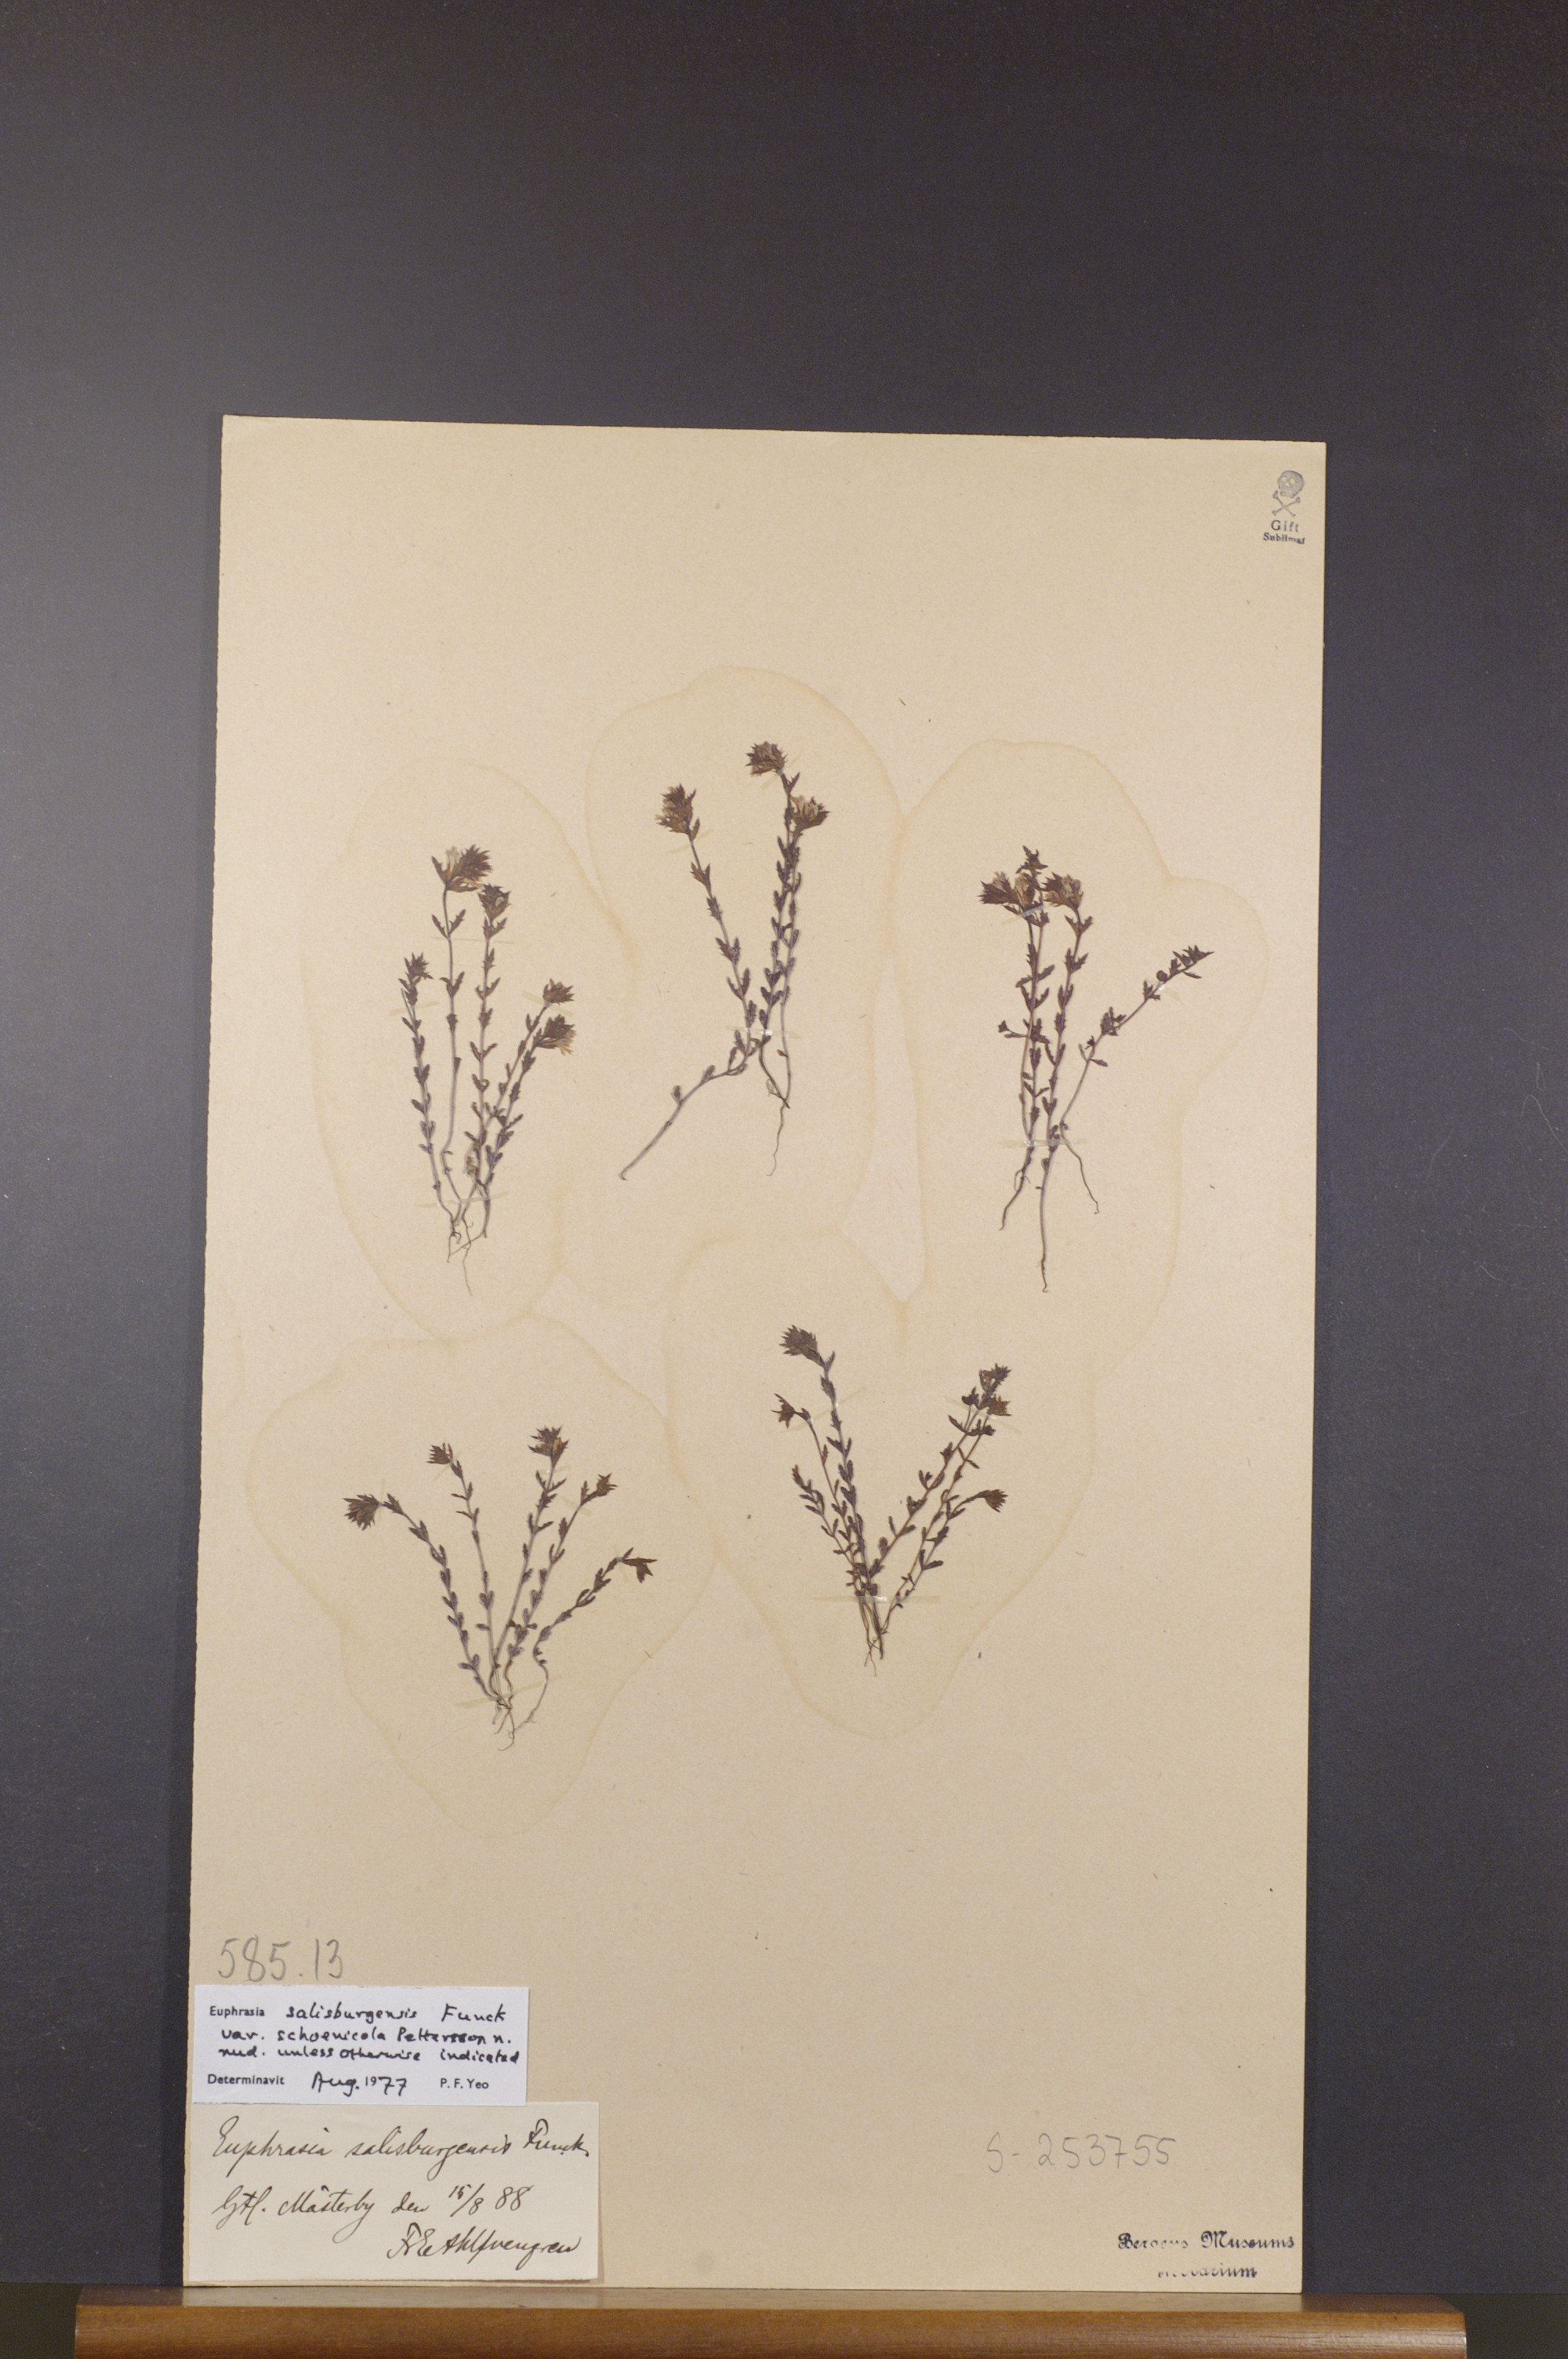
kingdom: Plantae
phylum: Tracheophyta
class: Magnoliopsida
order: Lamiales
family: Orobanchaceae
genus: Euphrasia
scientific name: Euphrasia salisburgensis
